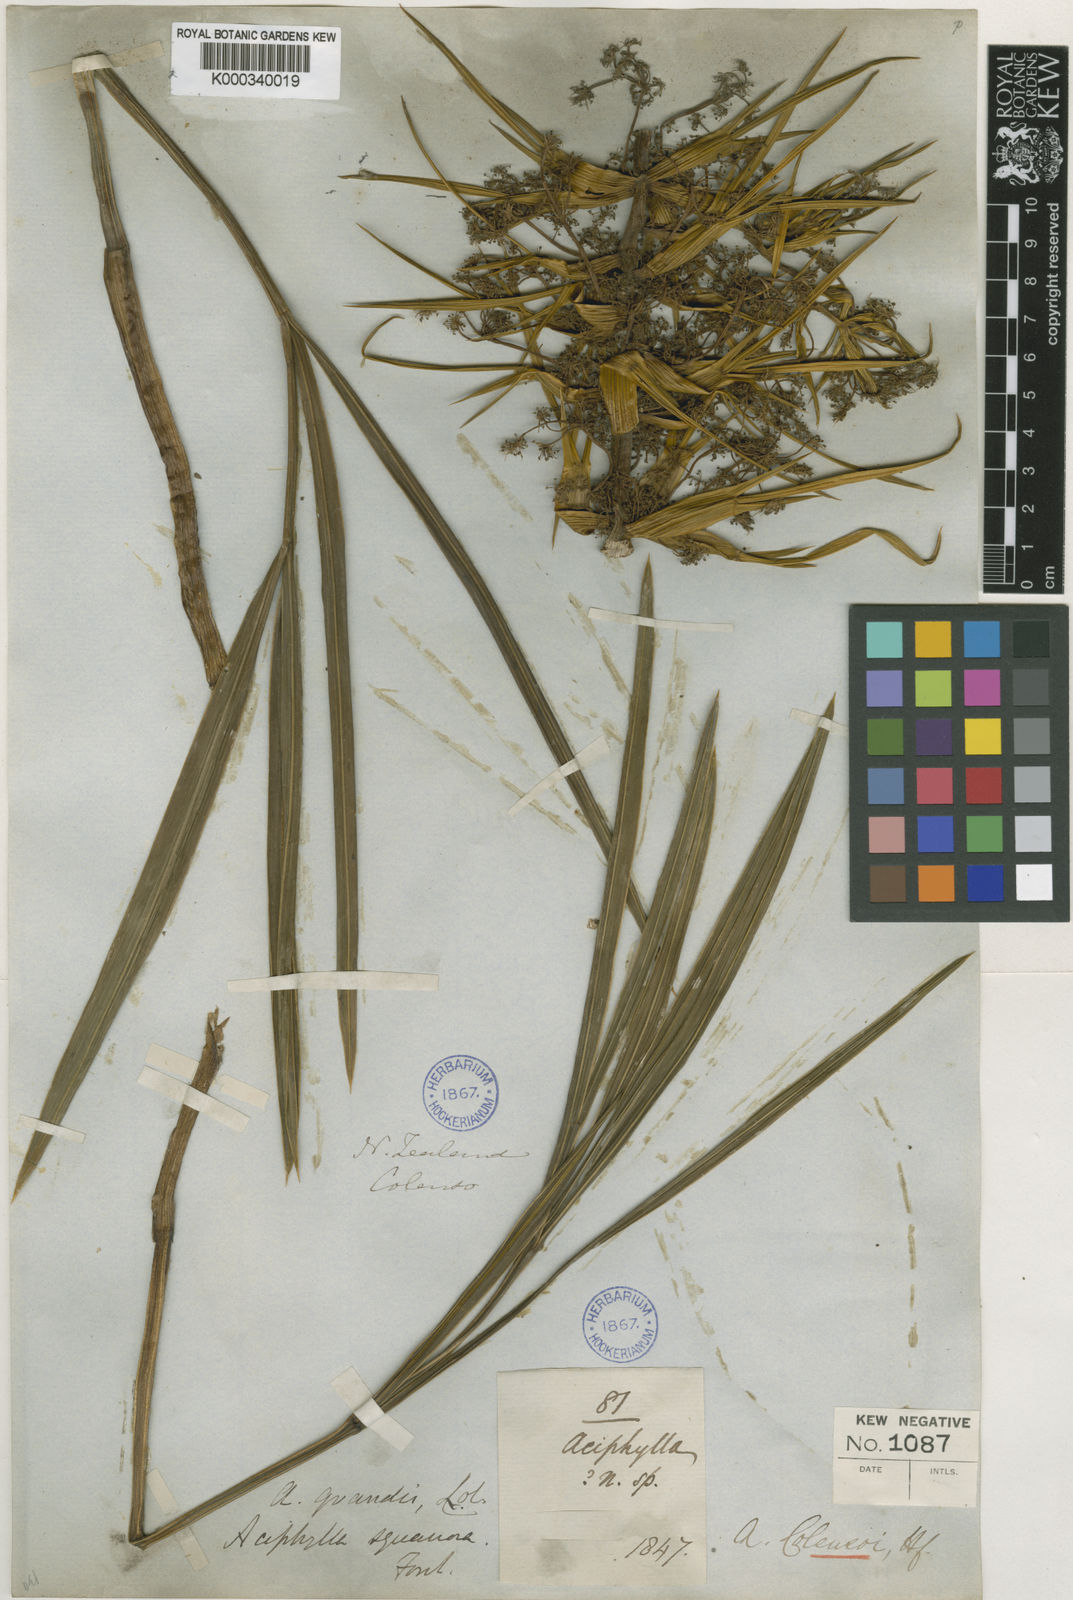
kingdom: Plantae
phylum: Tracheophyta
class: Magnoliopsida
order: Apiales
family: Apiaceae
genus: Aciphylla
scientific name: Aciphylla colensoi
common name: Colenso's spaniard
